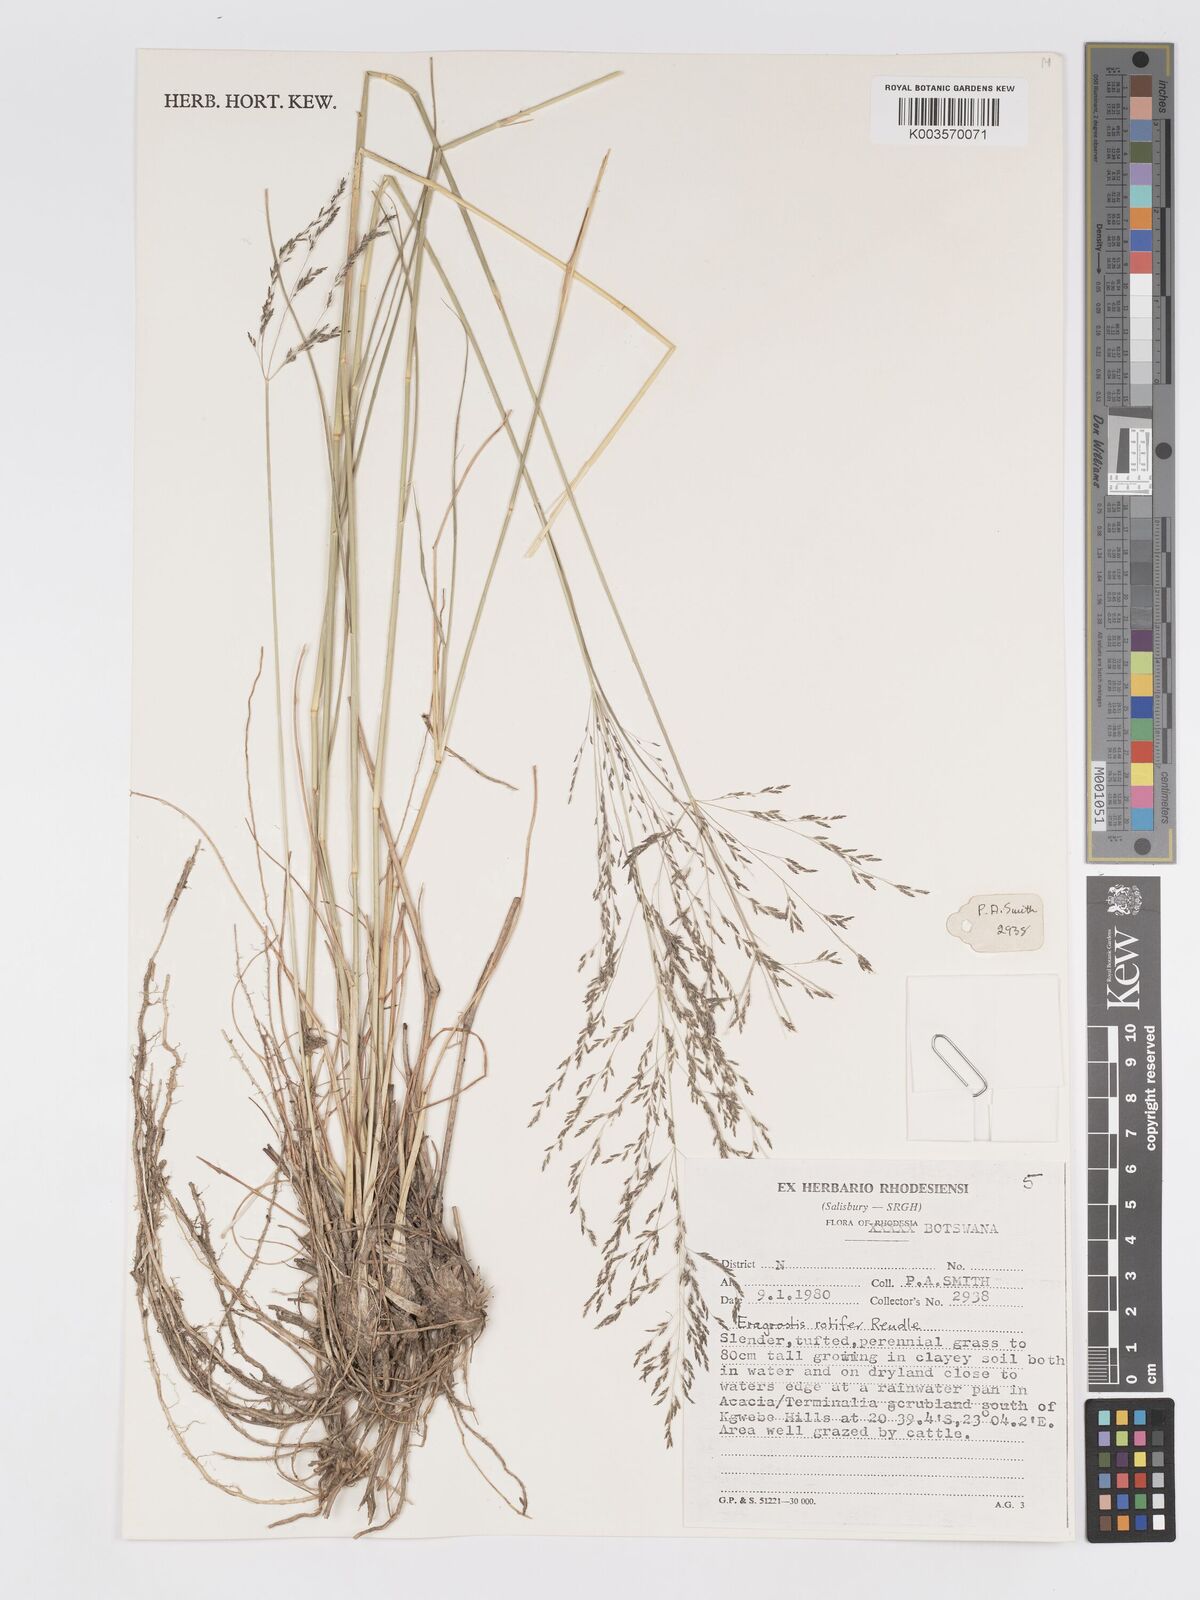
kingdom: Plantae
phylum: Tracheophyta
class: Liliopsida
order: Poales
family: Poaceae
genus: Eragrostis
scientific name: Eragrostis rotifer
